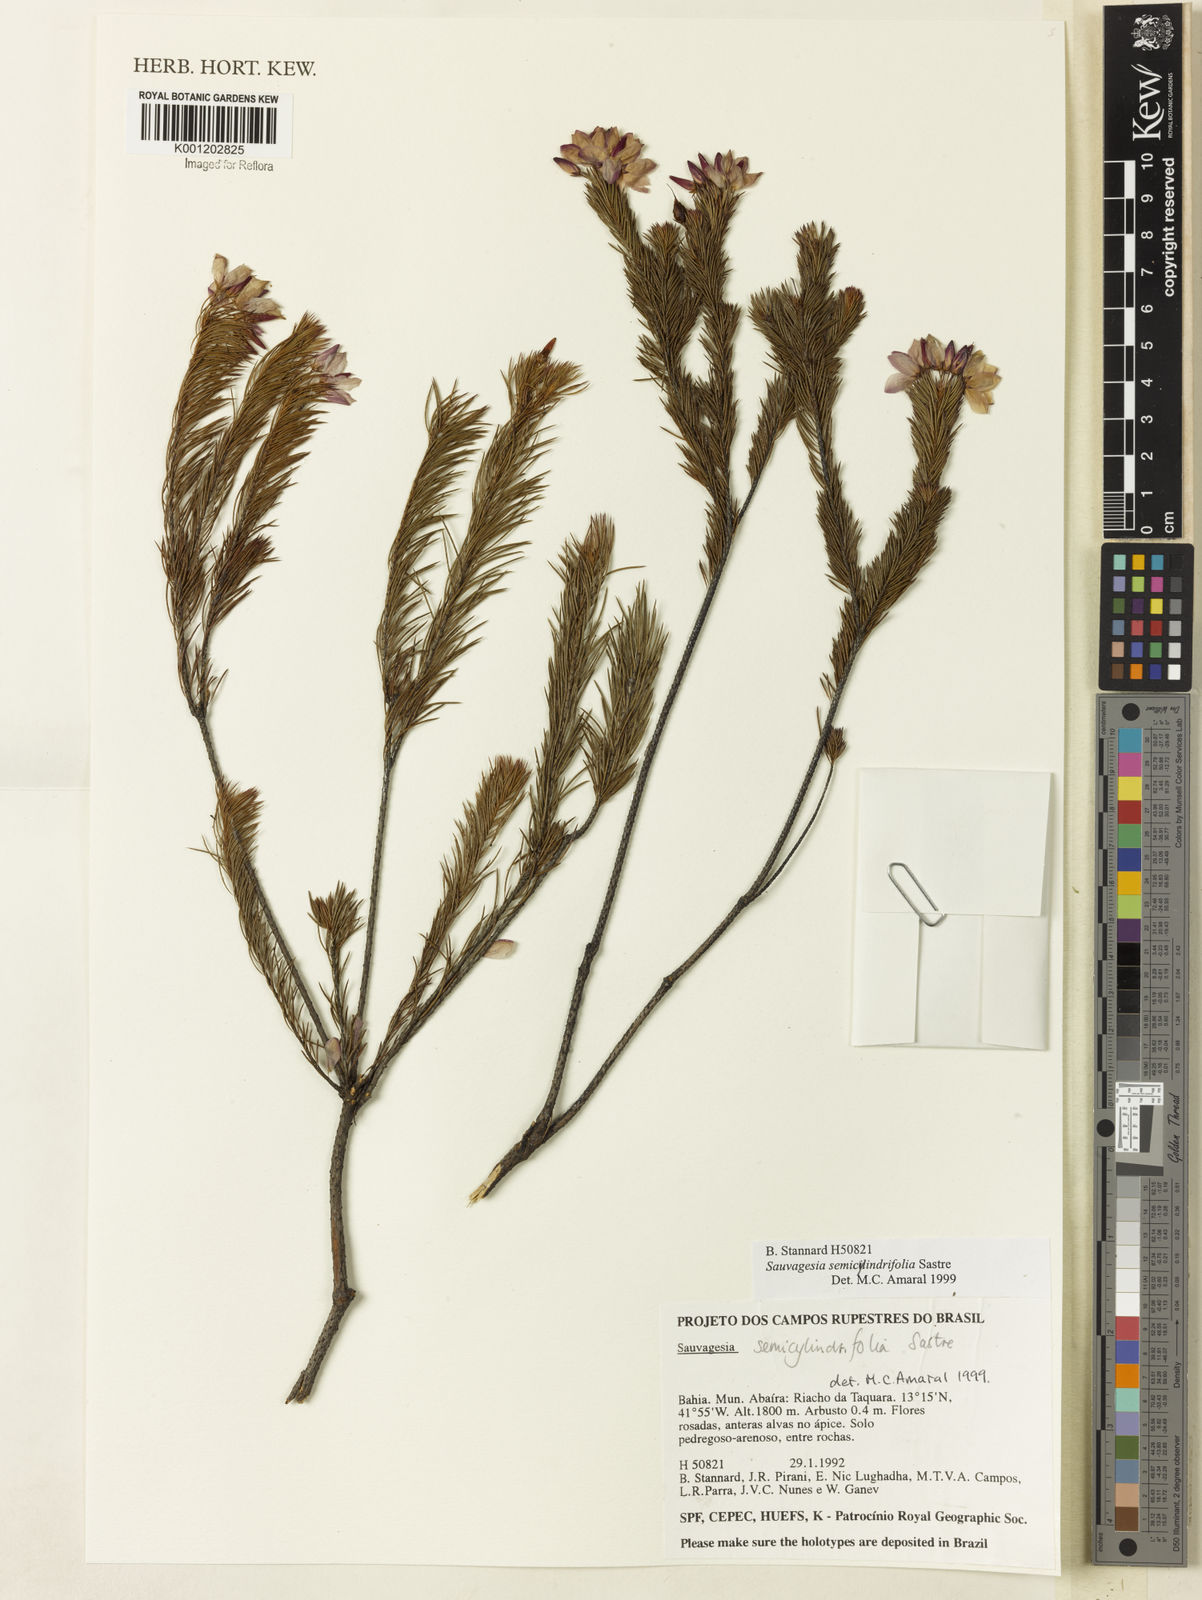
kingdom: Plantae
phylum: Tracheophyta
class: Magnoliopsida
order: Malpighiales
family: Ochnaceae
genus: Sauvagesia
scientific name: Sauvagesia semicylindrifolia
